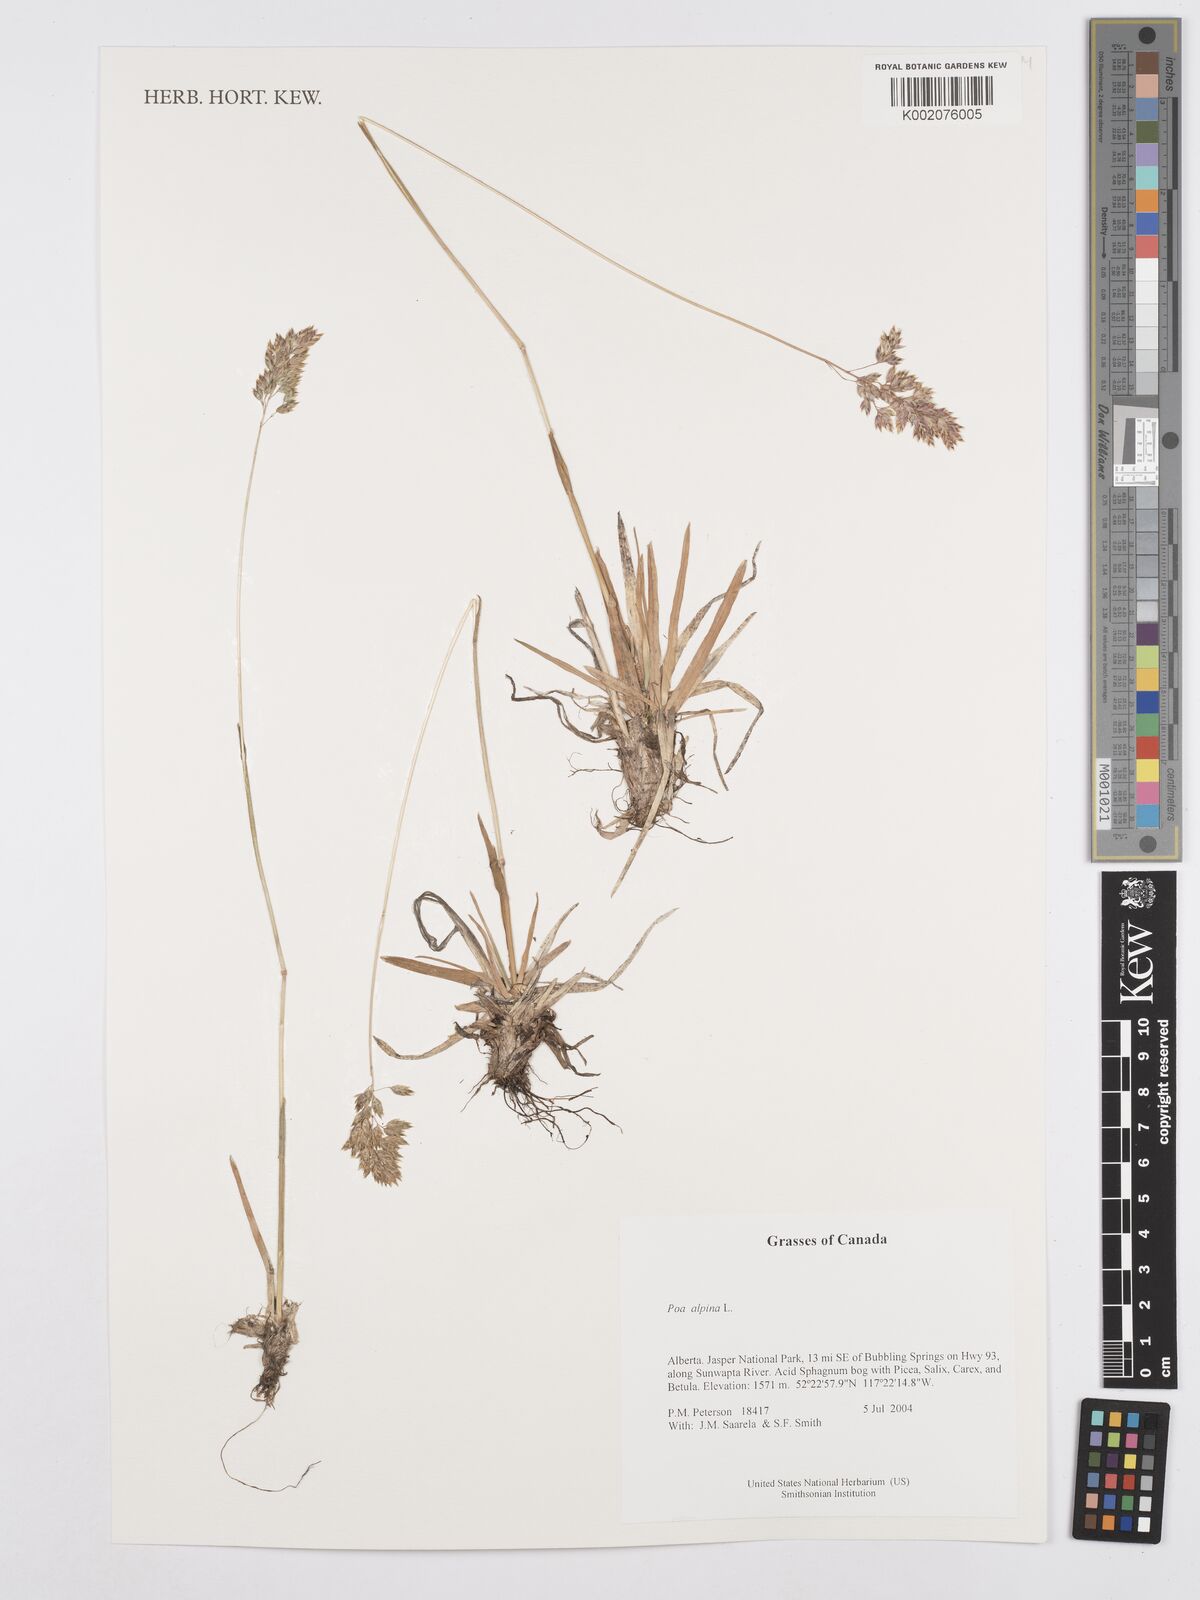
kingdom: Plantae
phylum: Tracheophyta
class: Liliopsida
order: Poales
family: Poaceae
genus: Poa
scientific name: Poa alpina
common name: Alpine bluegrass
